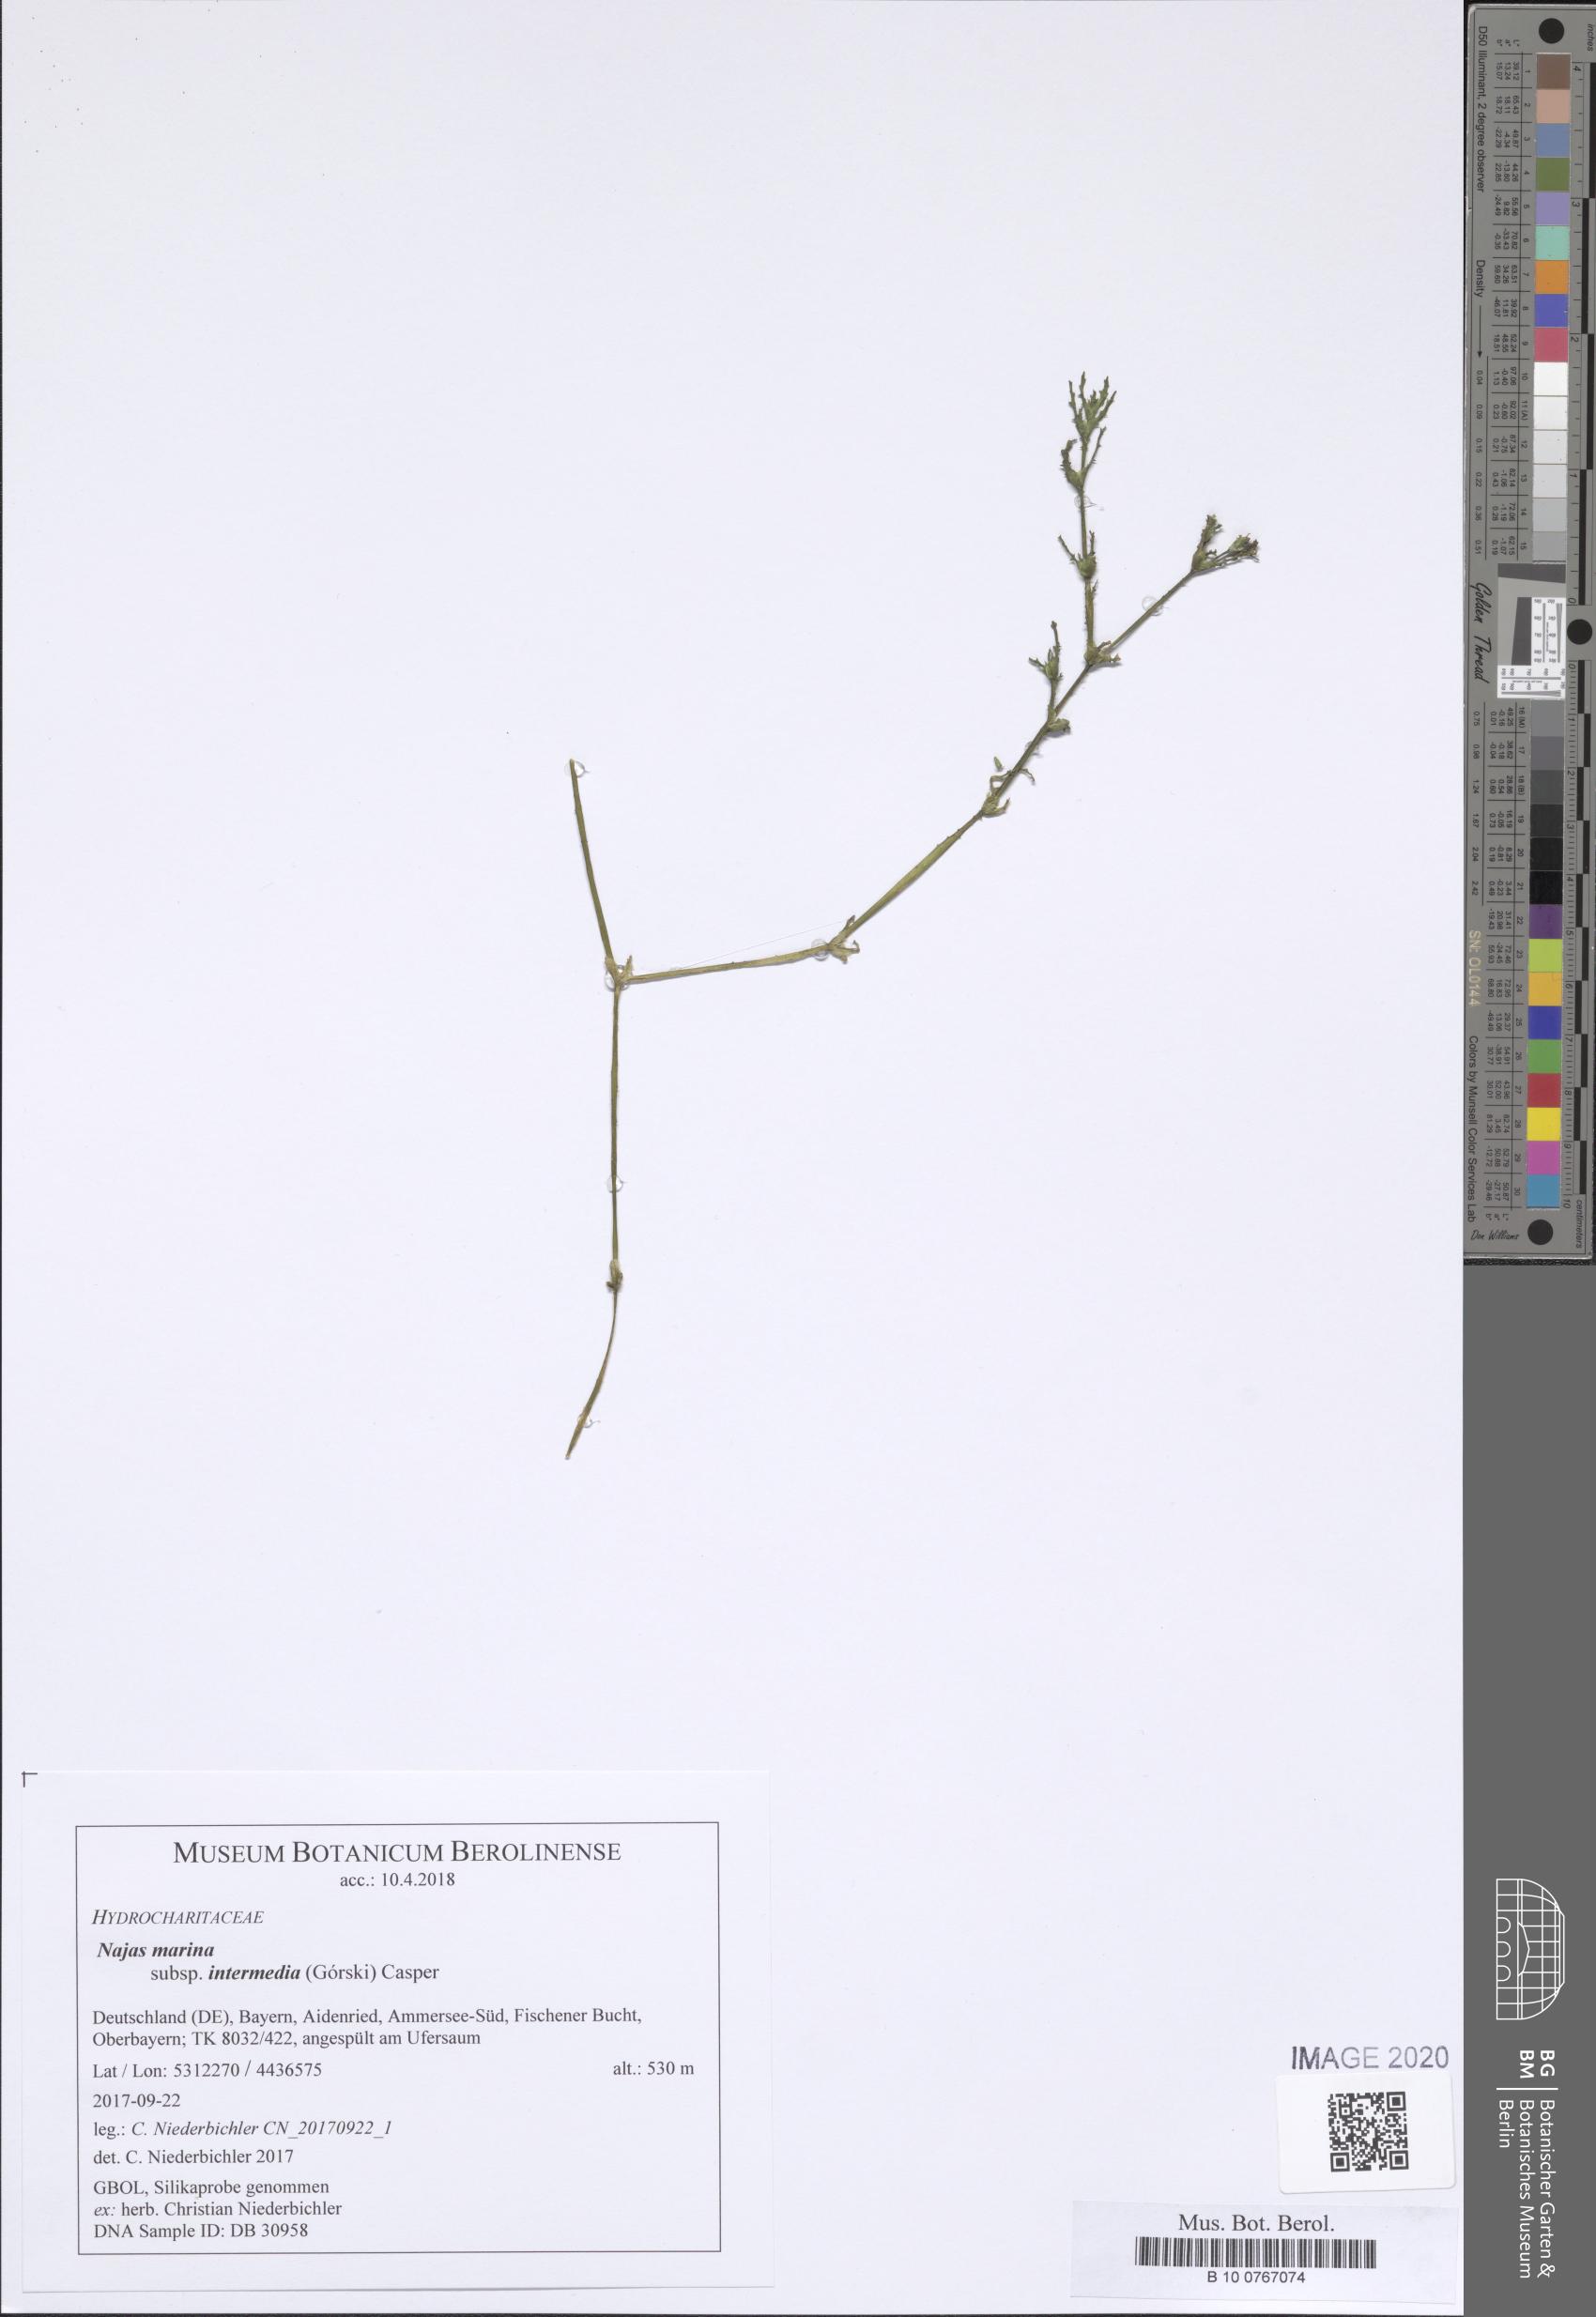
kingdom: Plantae
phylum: Tracheophyta
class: Liliopsida
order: Alismatales
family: Hydrocharitaceae
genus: Najas
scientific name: Najas marina
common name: Holly-leaved naiad
